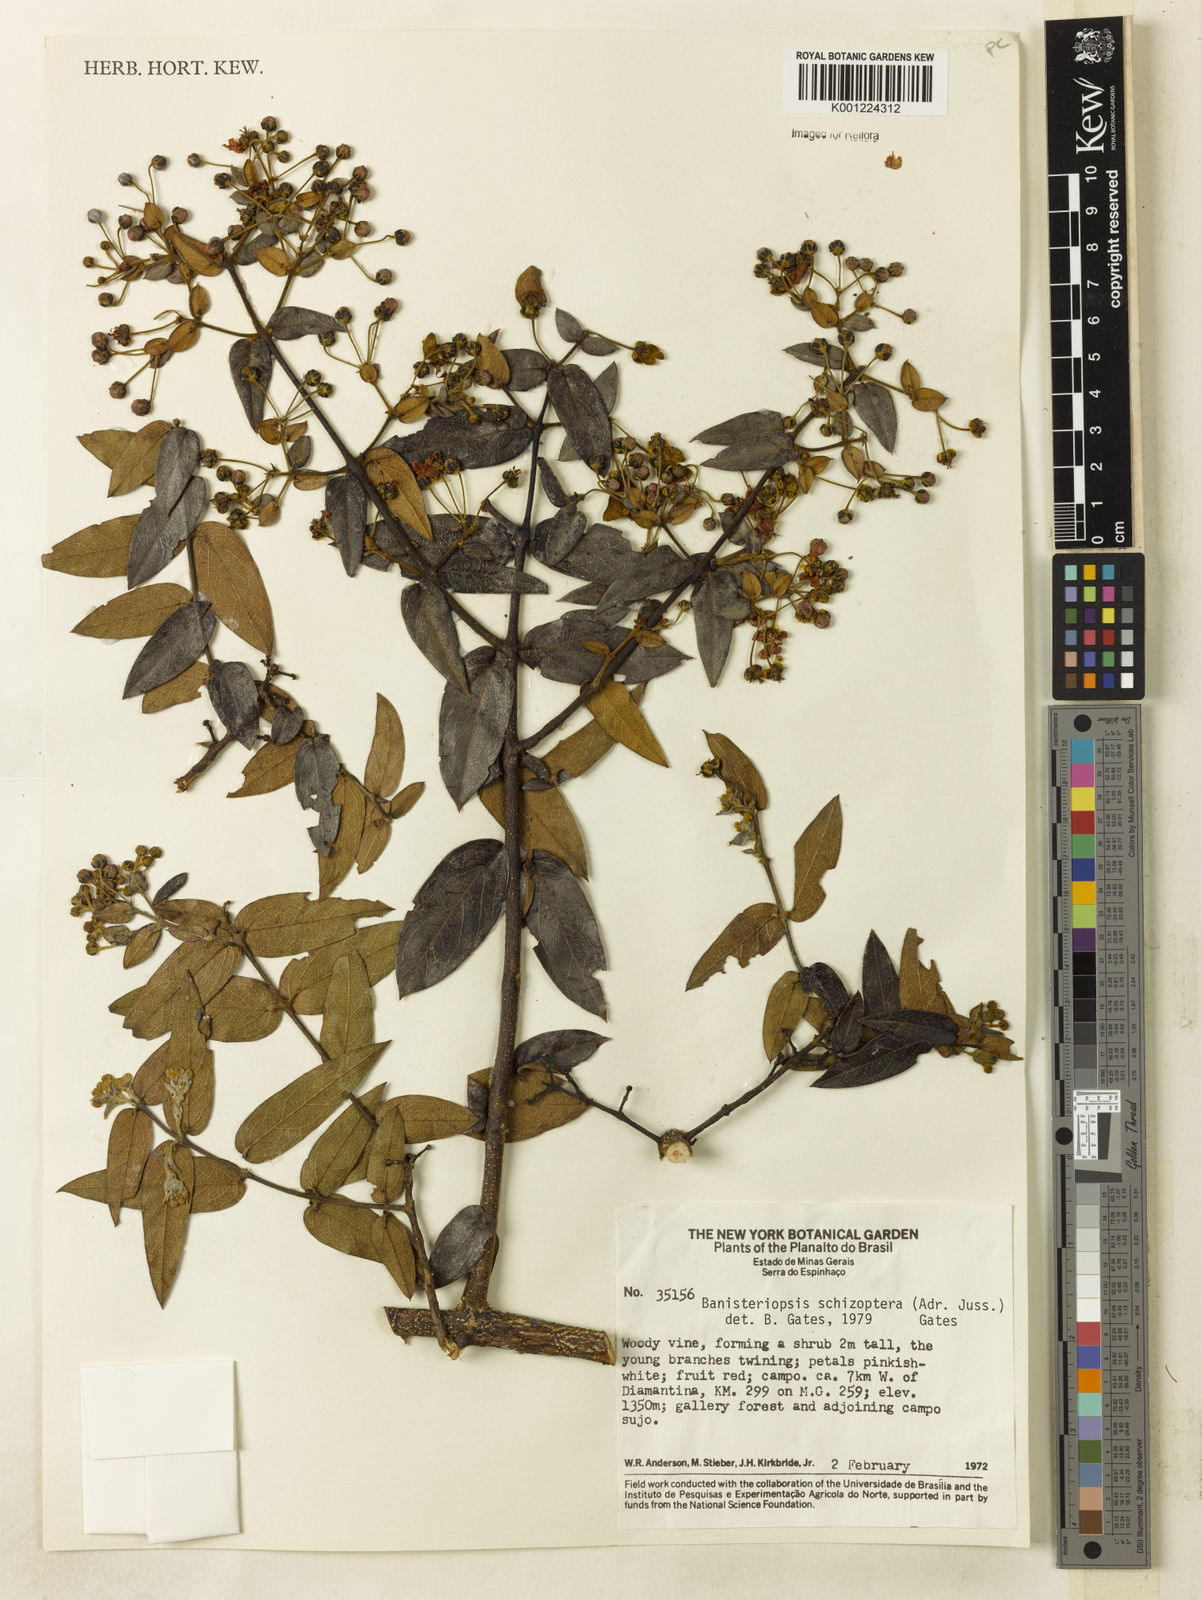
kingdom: Plantae
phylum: Tracheophyta
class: Magnoliopsida
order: Malpighiales
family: Malpighiaceae
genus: Banisteriopsis
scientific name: Banisteriopsis schizoptera
